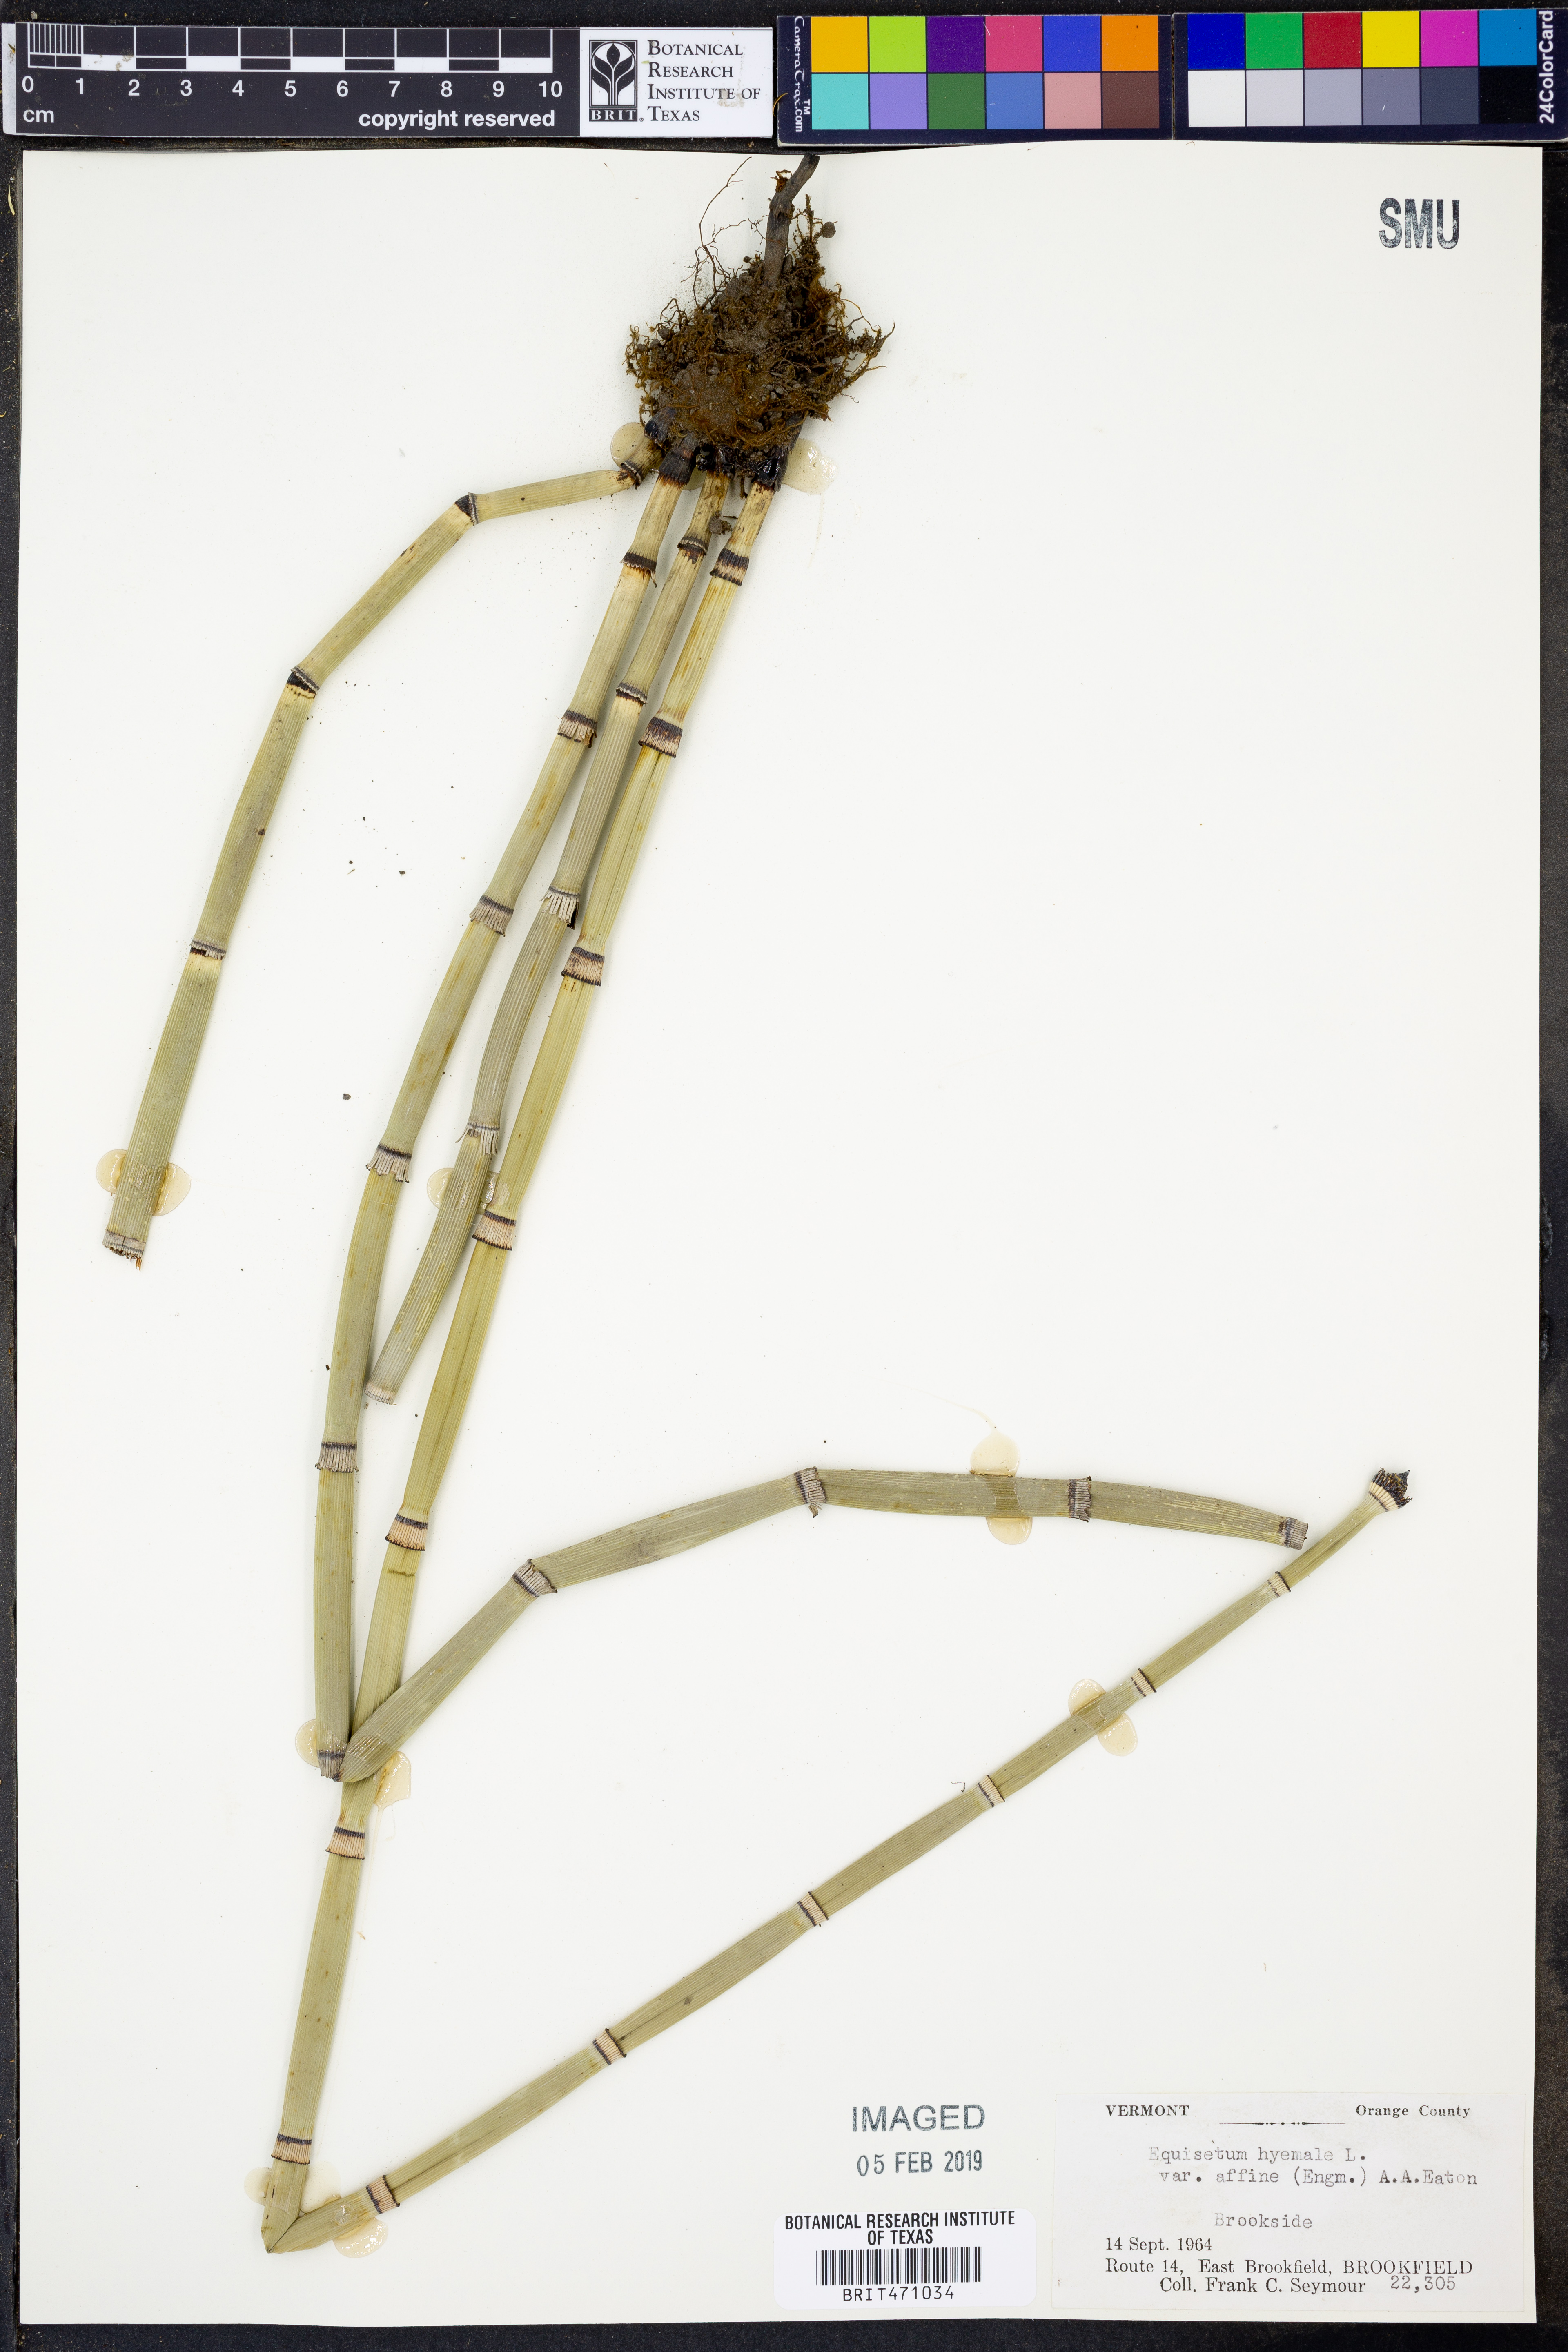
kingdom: Plantae
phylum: Tracheophyta
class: Polypodiopsida
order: Equisetales
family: Equisetaceae
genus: Equisetum
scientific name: Equisetum praealtum
